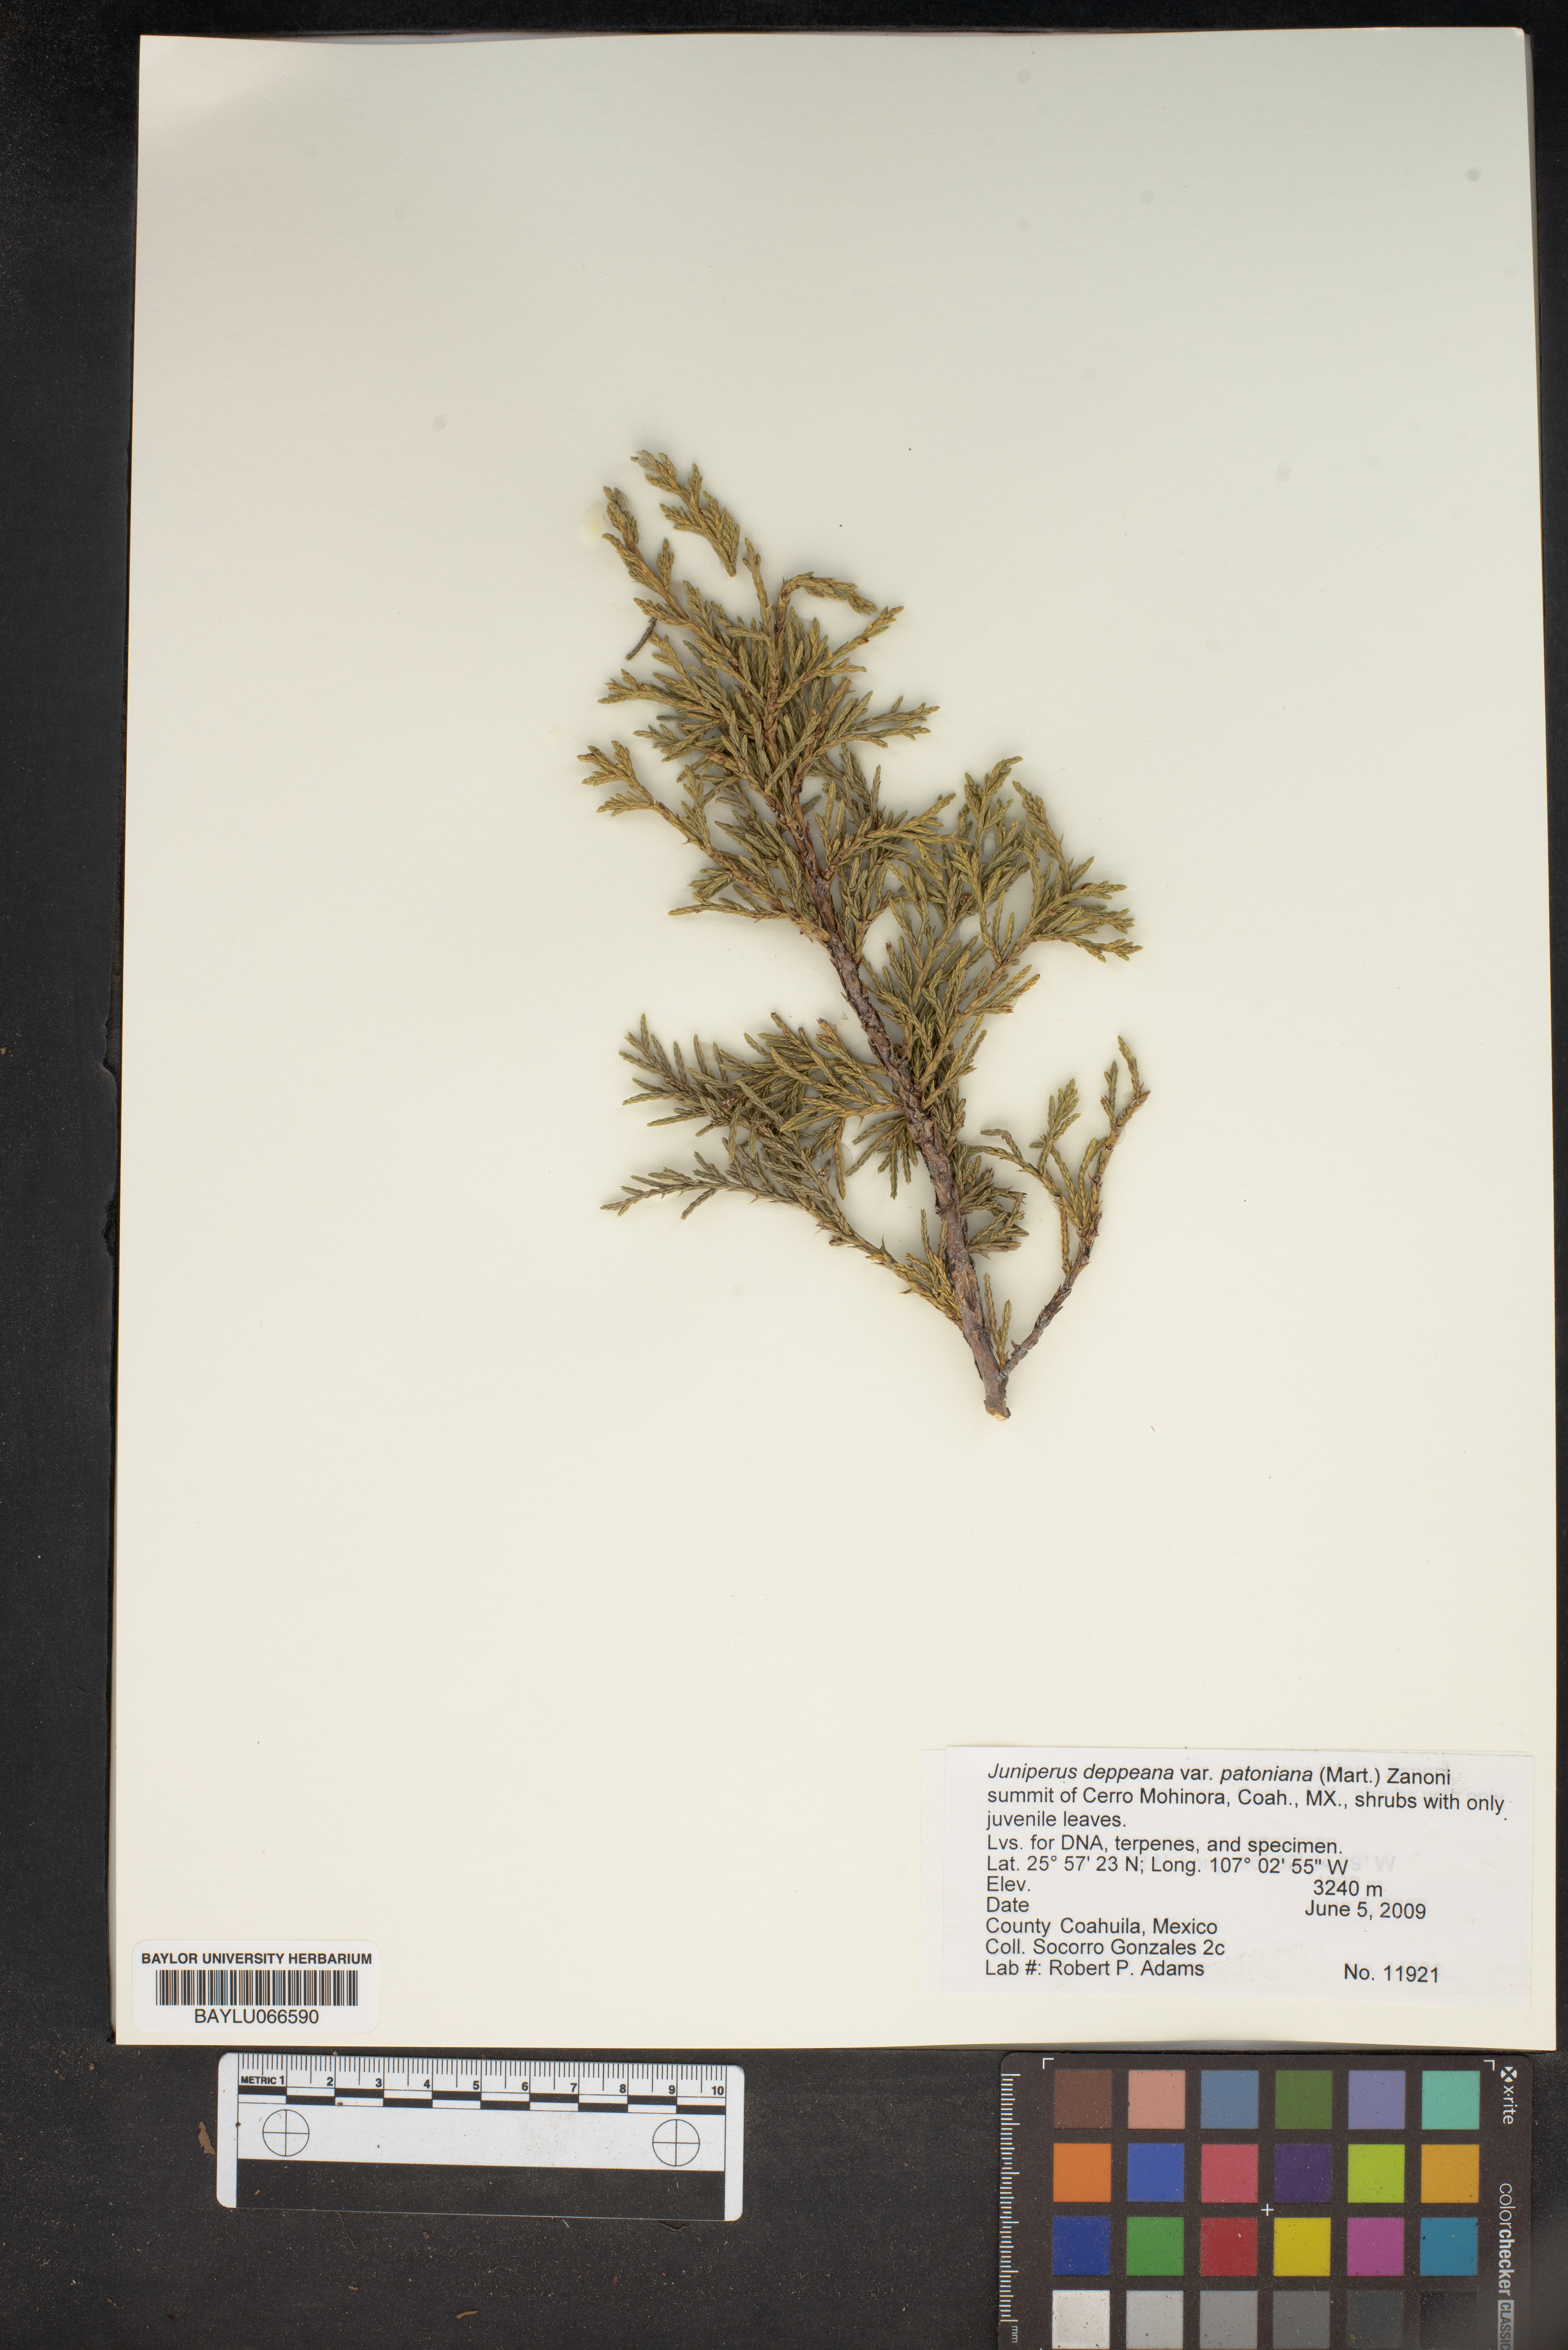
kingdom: Plantae
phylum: Tracheophyta
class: Pinopsida
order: Pinales
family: Cupressaceae
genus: Juniperus
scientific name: Juniperus deppeana
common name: Alligator juniper
